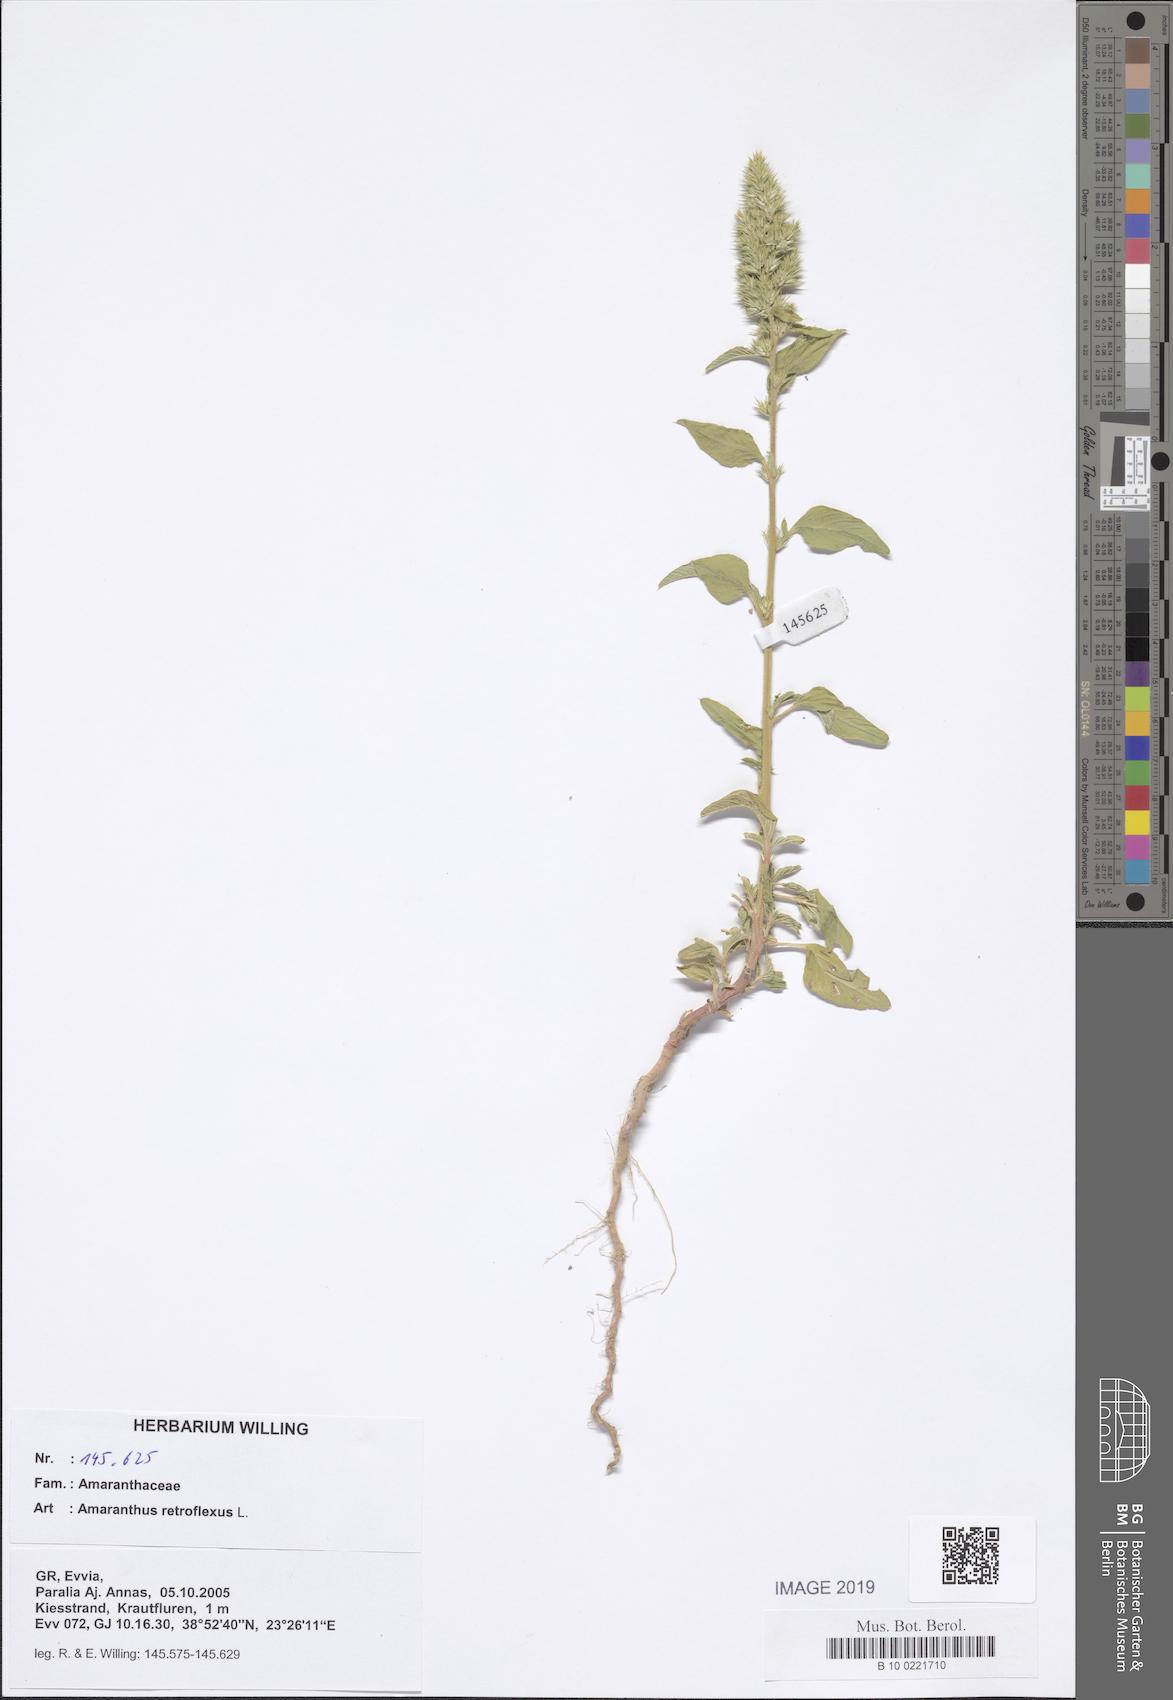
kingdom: Plantae
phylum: Tracheophyta
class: Magnoliopsida
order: Caryophyllales
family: Amaranthaceae
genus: Amaranthus
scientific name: Amaranthus retroflexus
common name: Redroot amaranth
